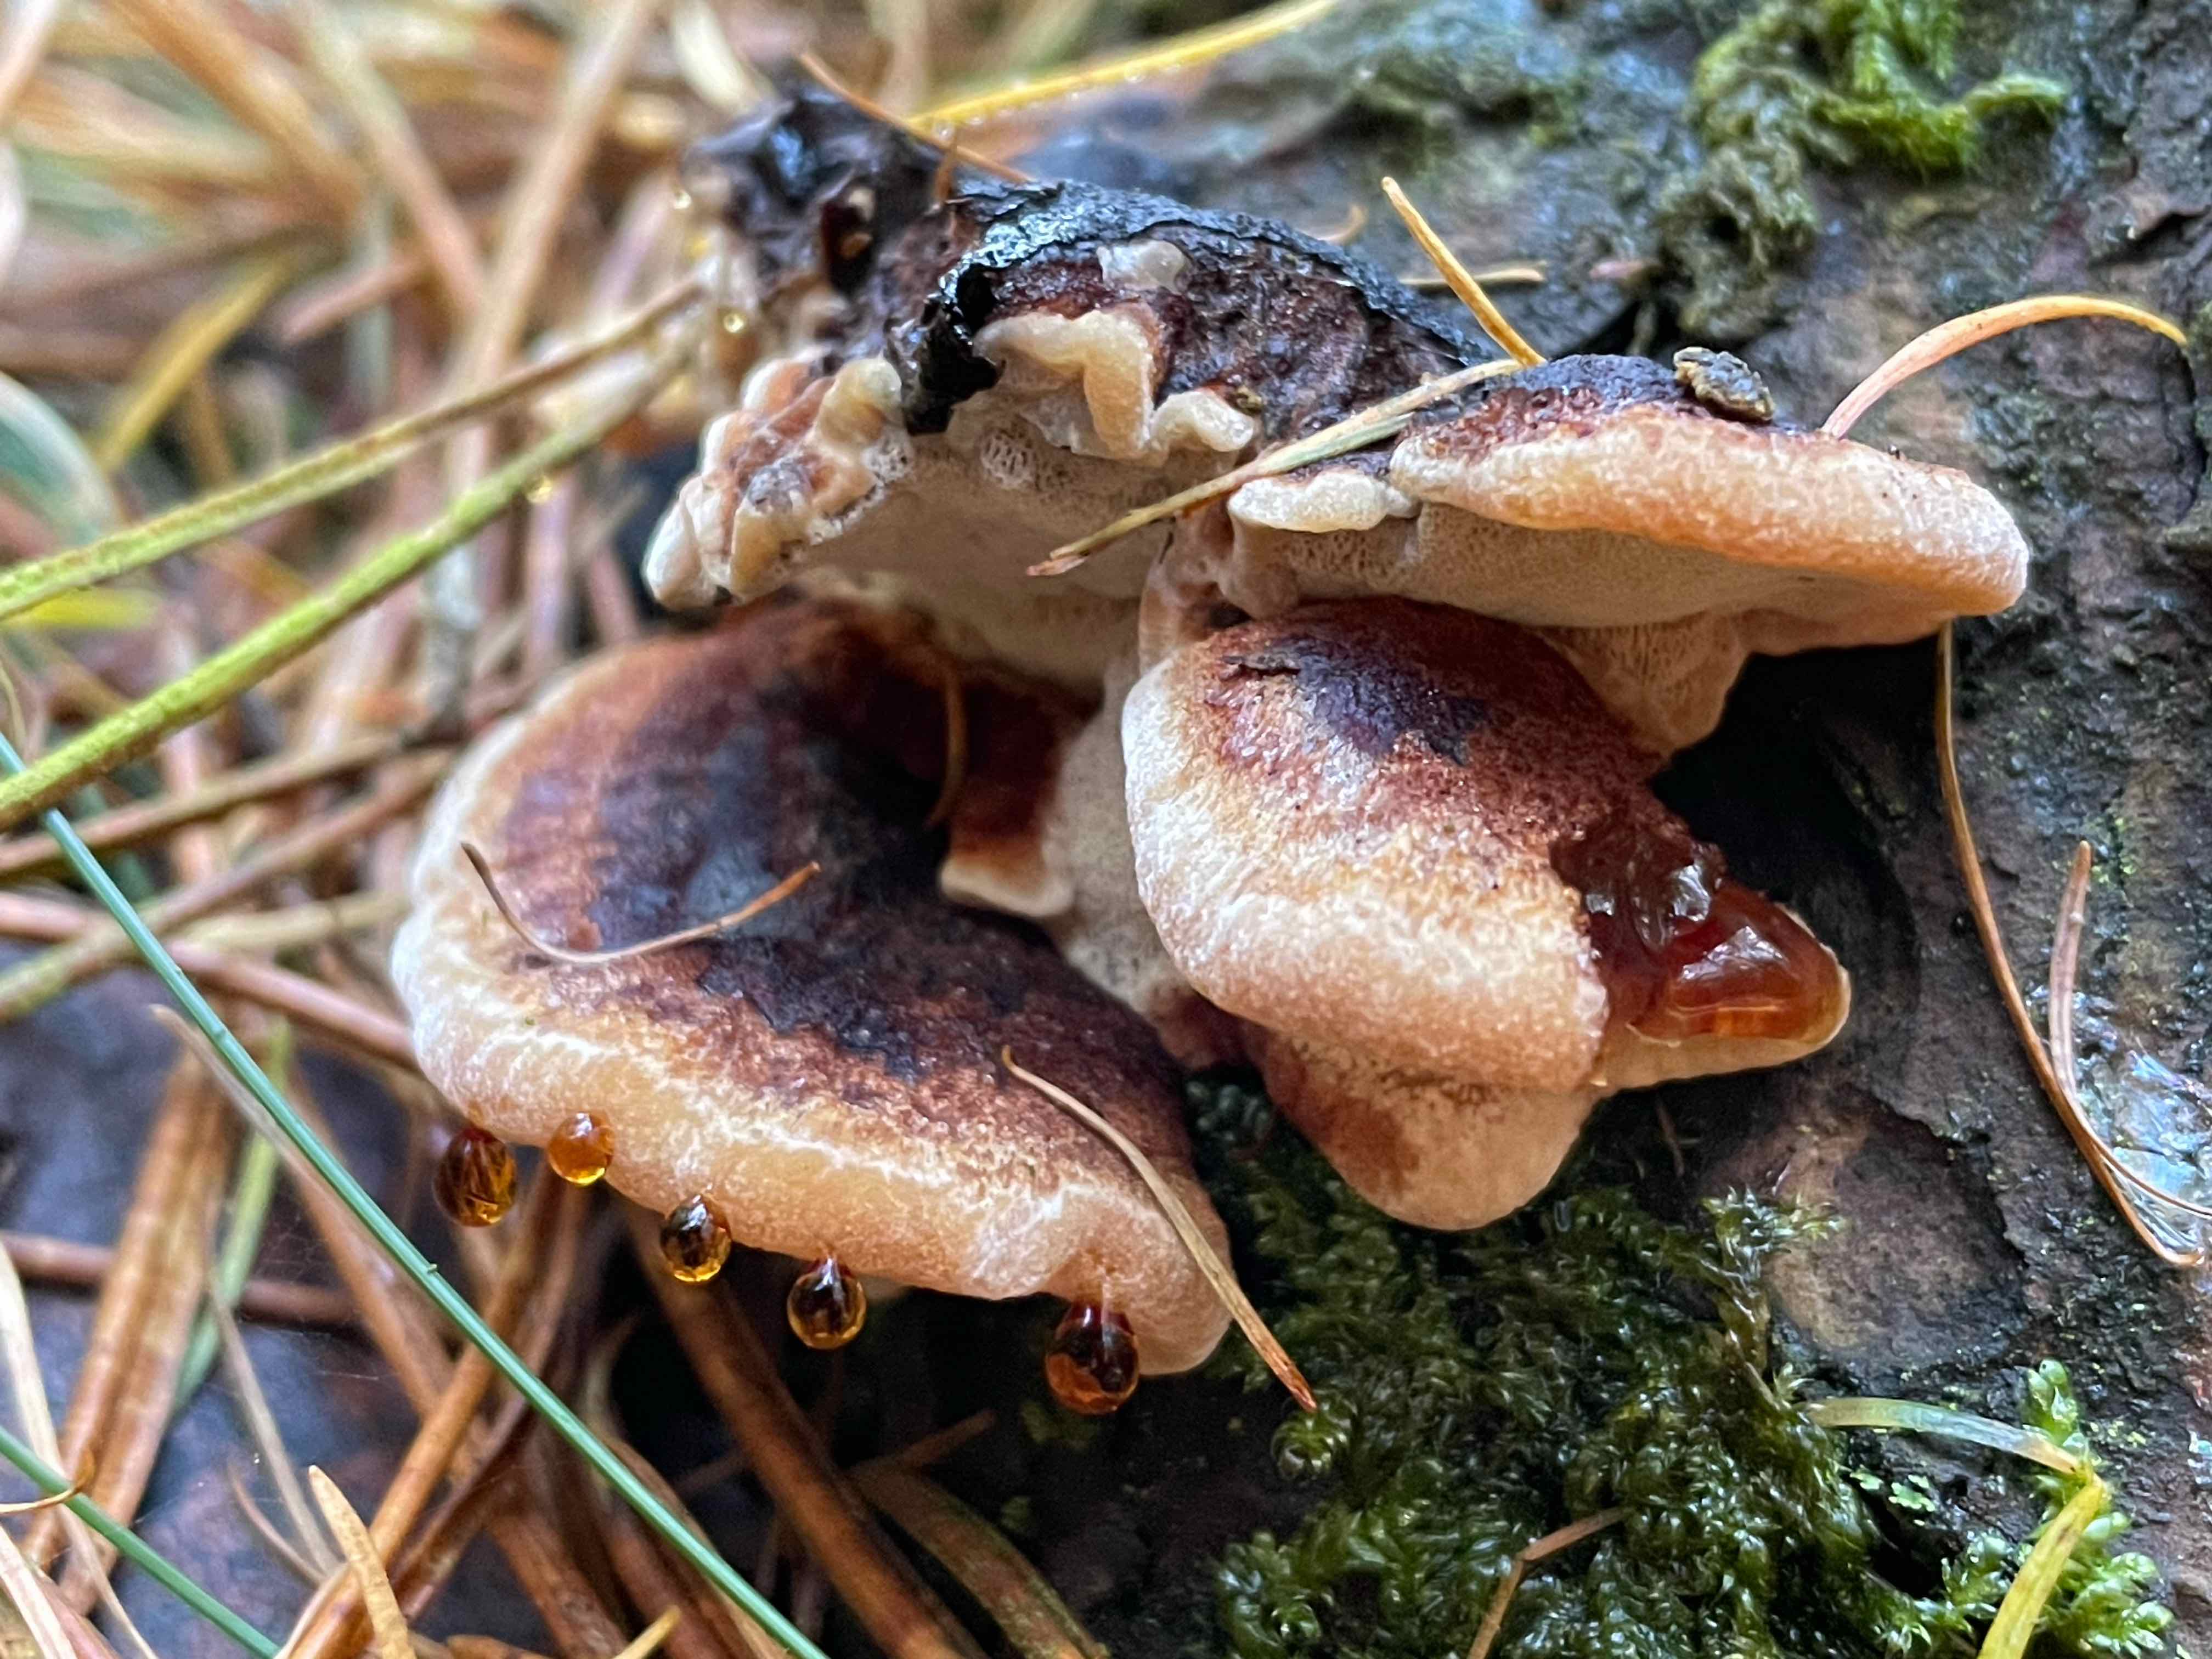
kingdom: Fungi
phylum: Basidiomycota
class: Agaricomycetes
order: Polyporales
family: Ischnodermataceae
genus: Ischnoderma
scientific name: Ischnoderma benzoinum
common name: gran-tjæreporesvamp
